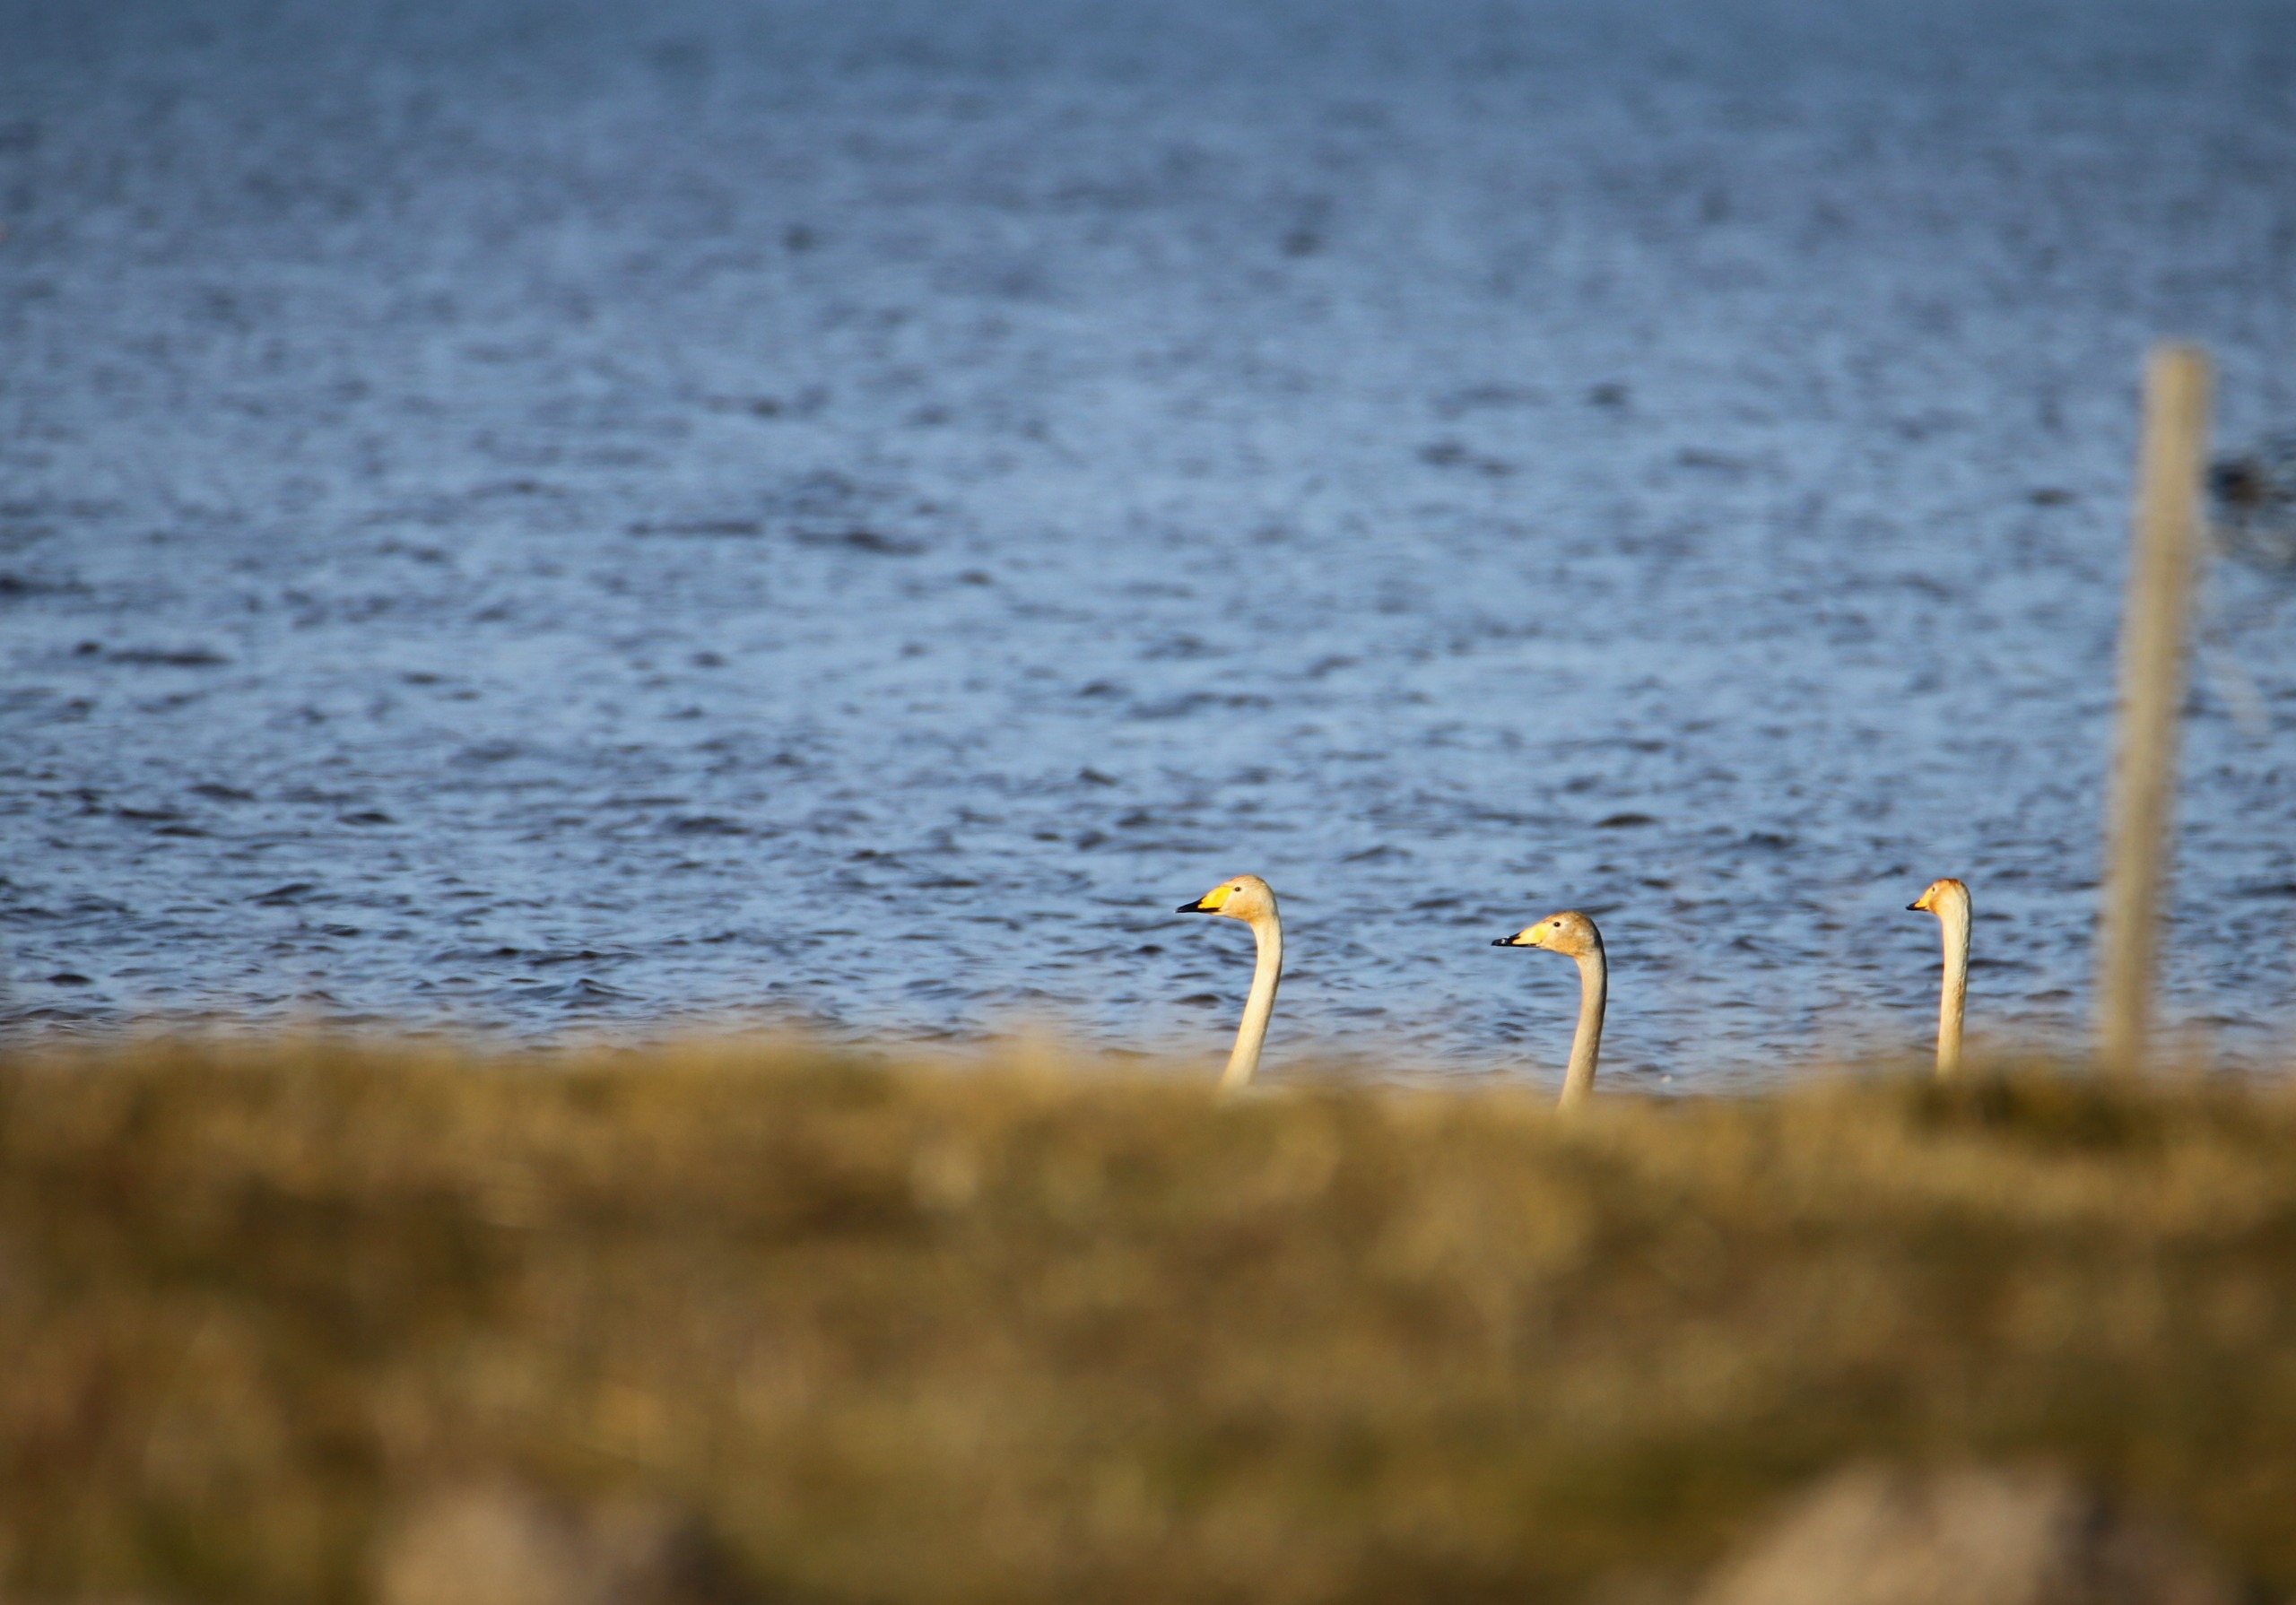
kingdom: Animalia
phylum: Chordata
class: Aves
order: Anseriformes
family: Anatidae
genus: Cygnus
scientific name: Cygnus cygnus
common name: Sangsvane
